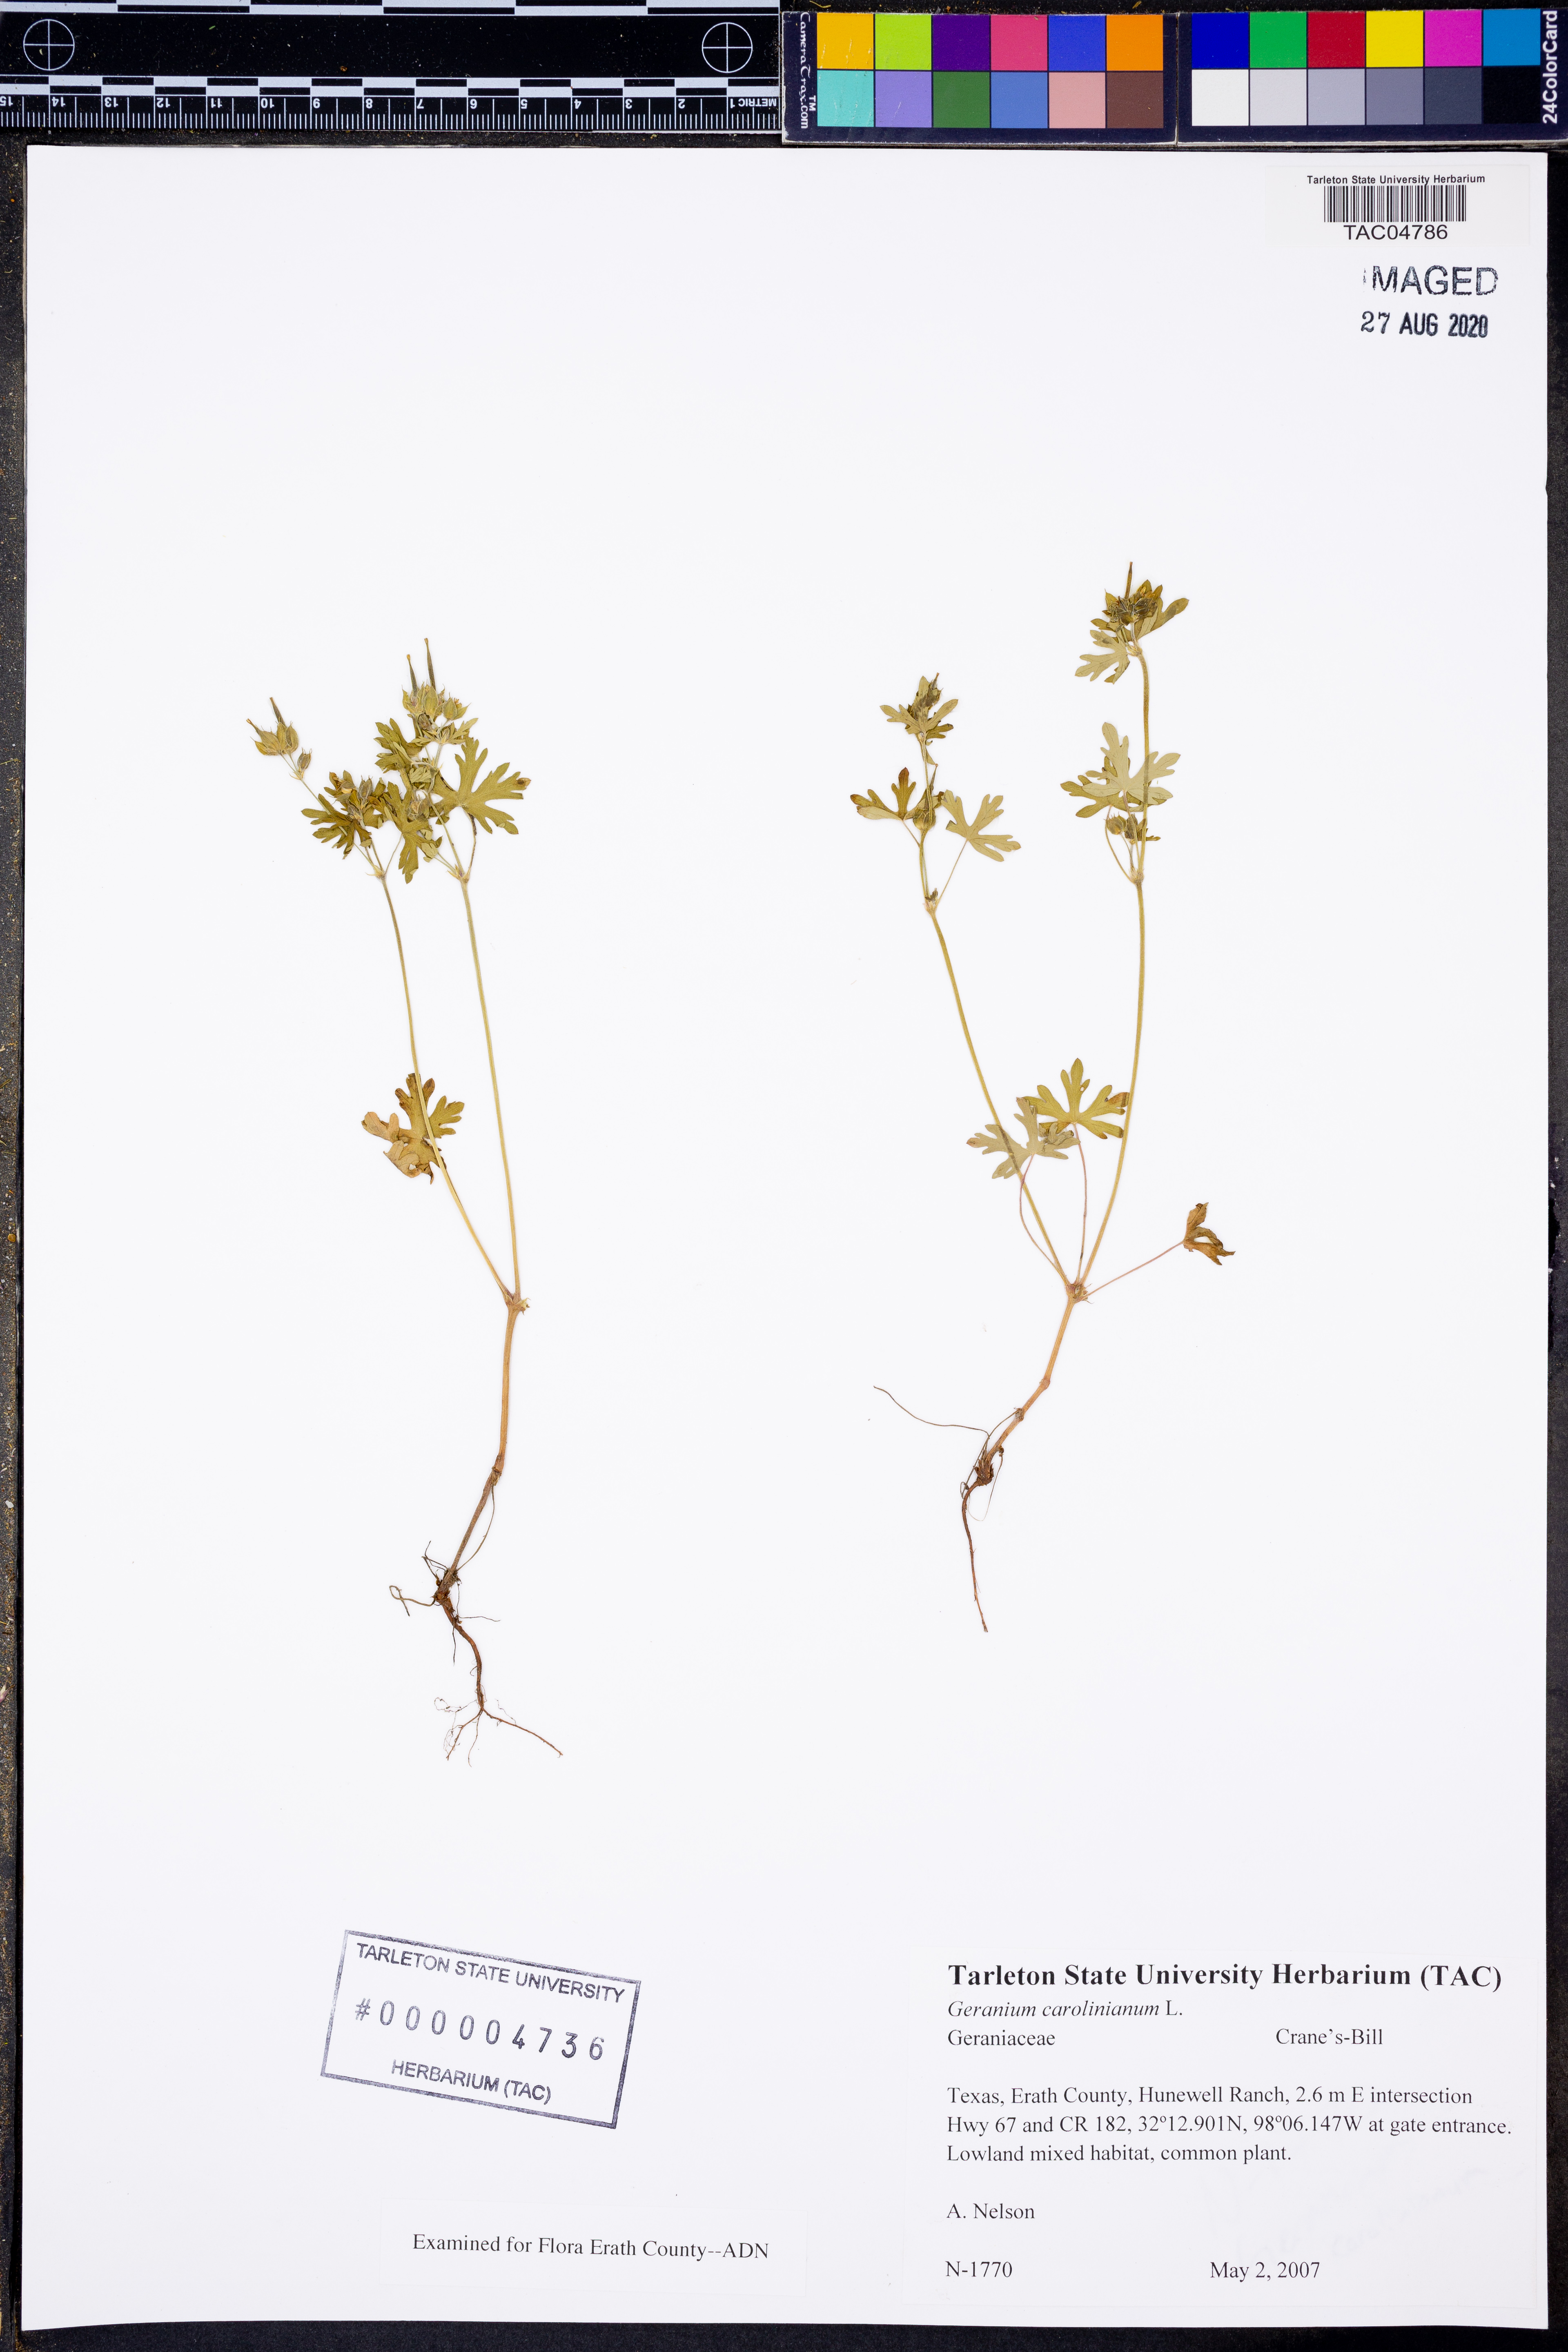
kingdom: Plantae
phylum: Tracheophyta
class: Magnoliopsida
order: Geraniales
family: Geraniaceae
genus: Geranium
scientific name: Geranium carolinianum
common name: Carolina crane's-bill
